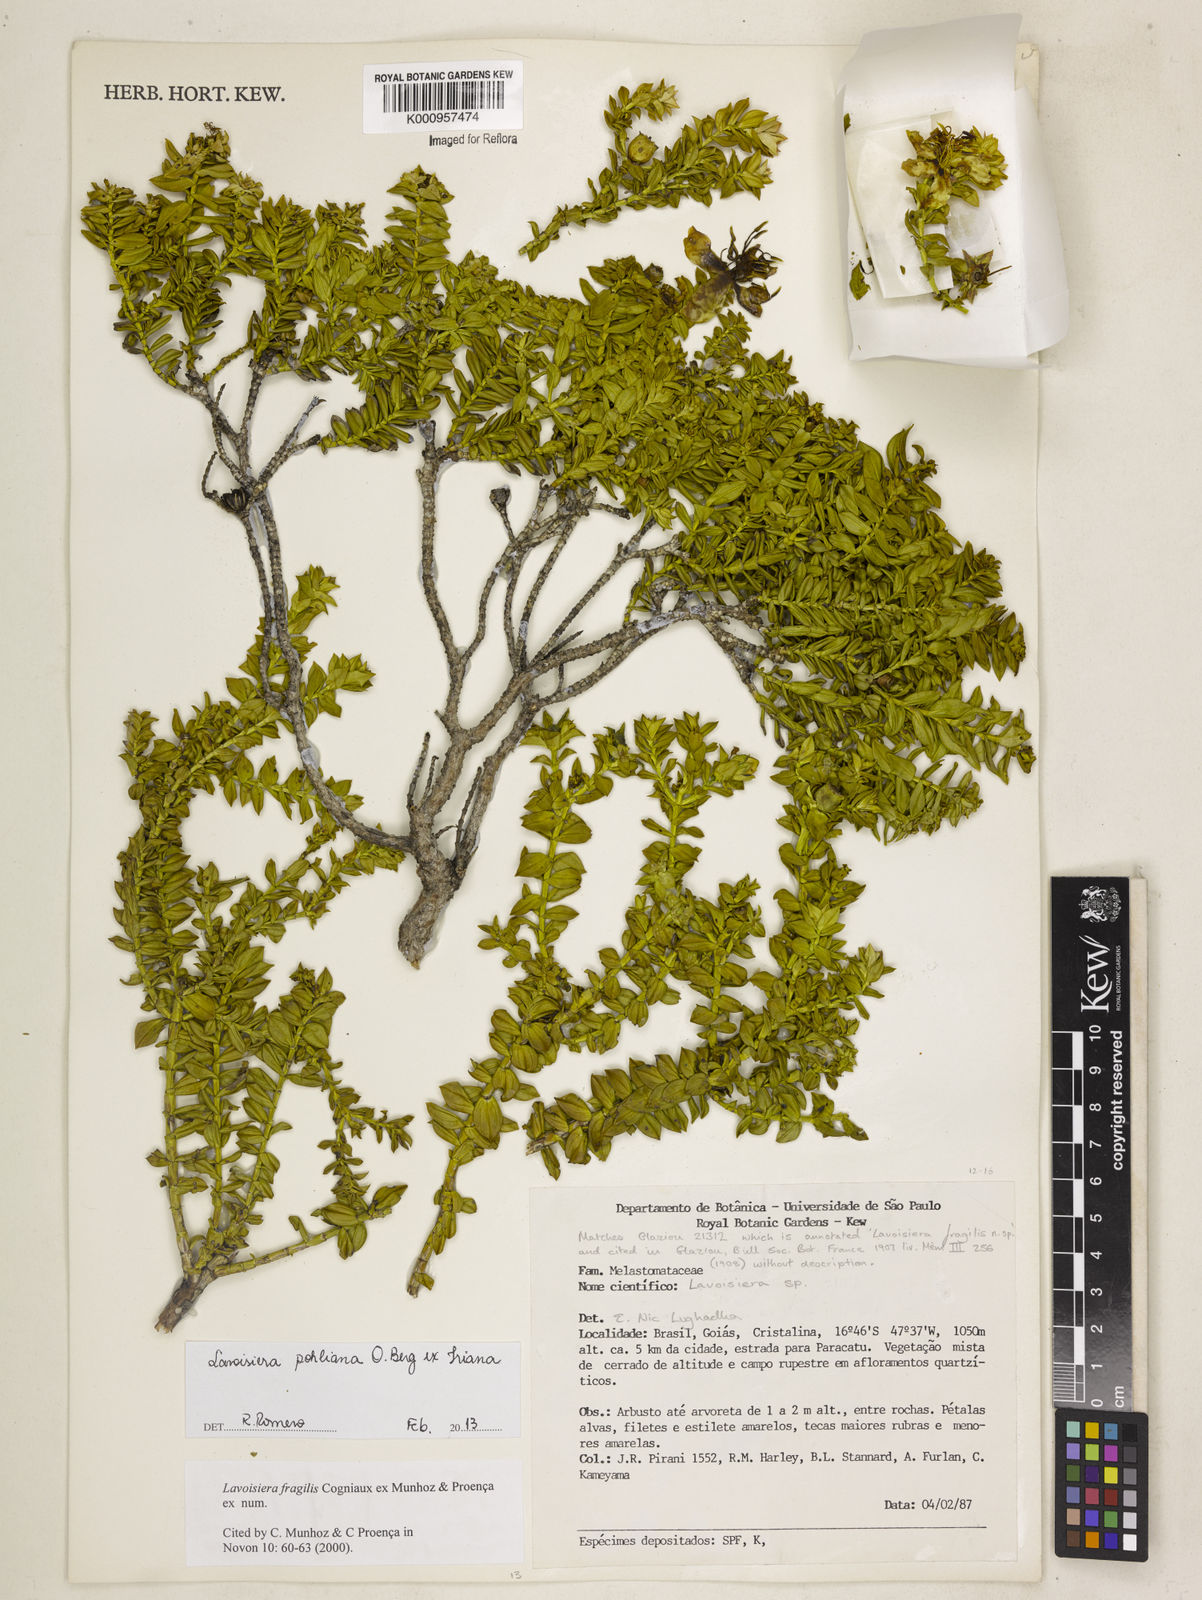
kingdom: Plantae
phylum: Tracheophyta
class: Magnoliopsida
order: Myrtales
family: Melastomataceae
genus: Microlicia
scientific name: Microlicia pohliana
